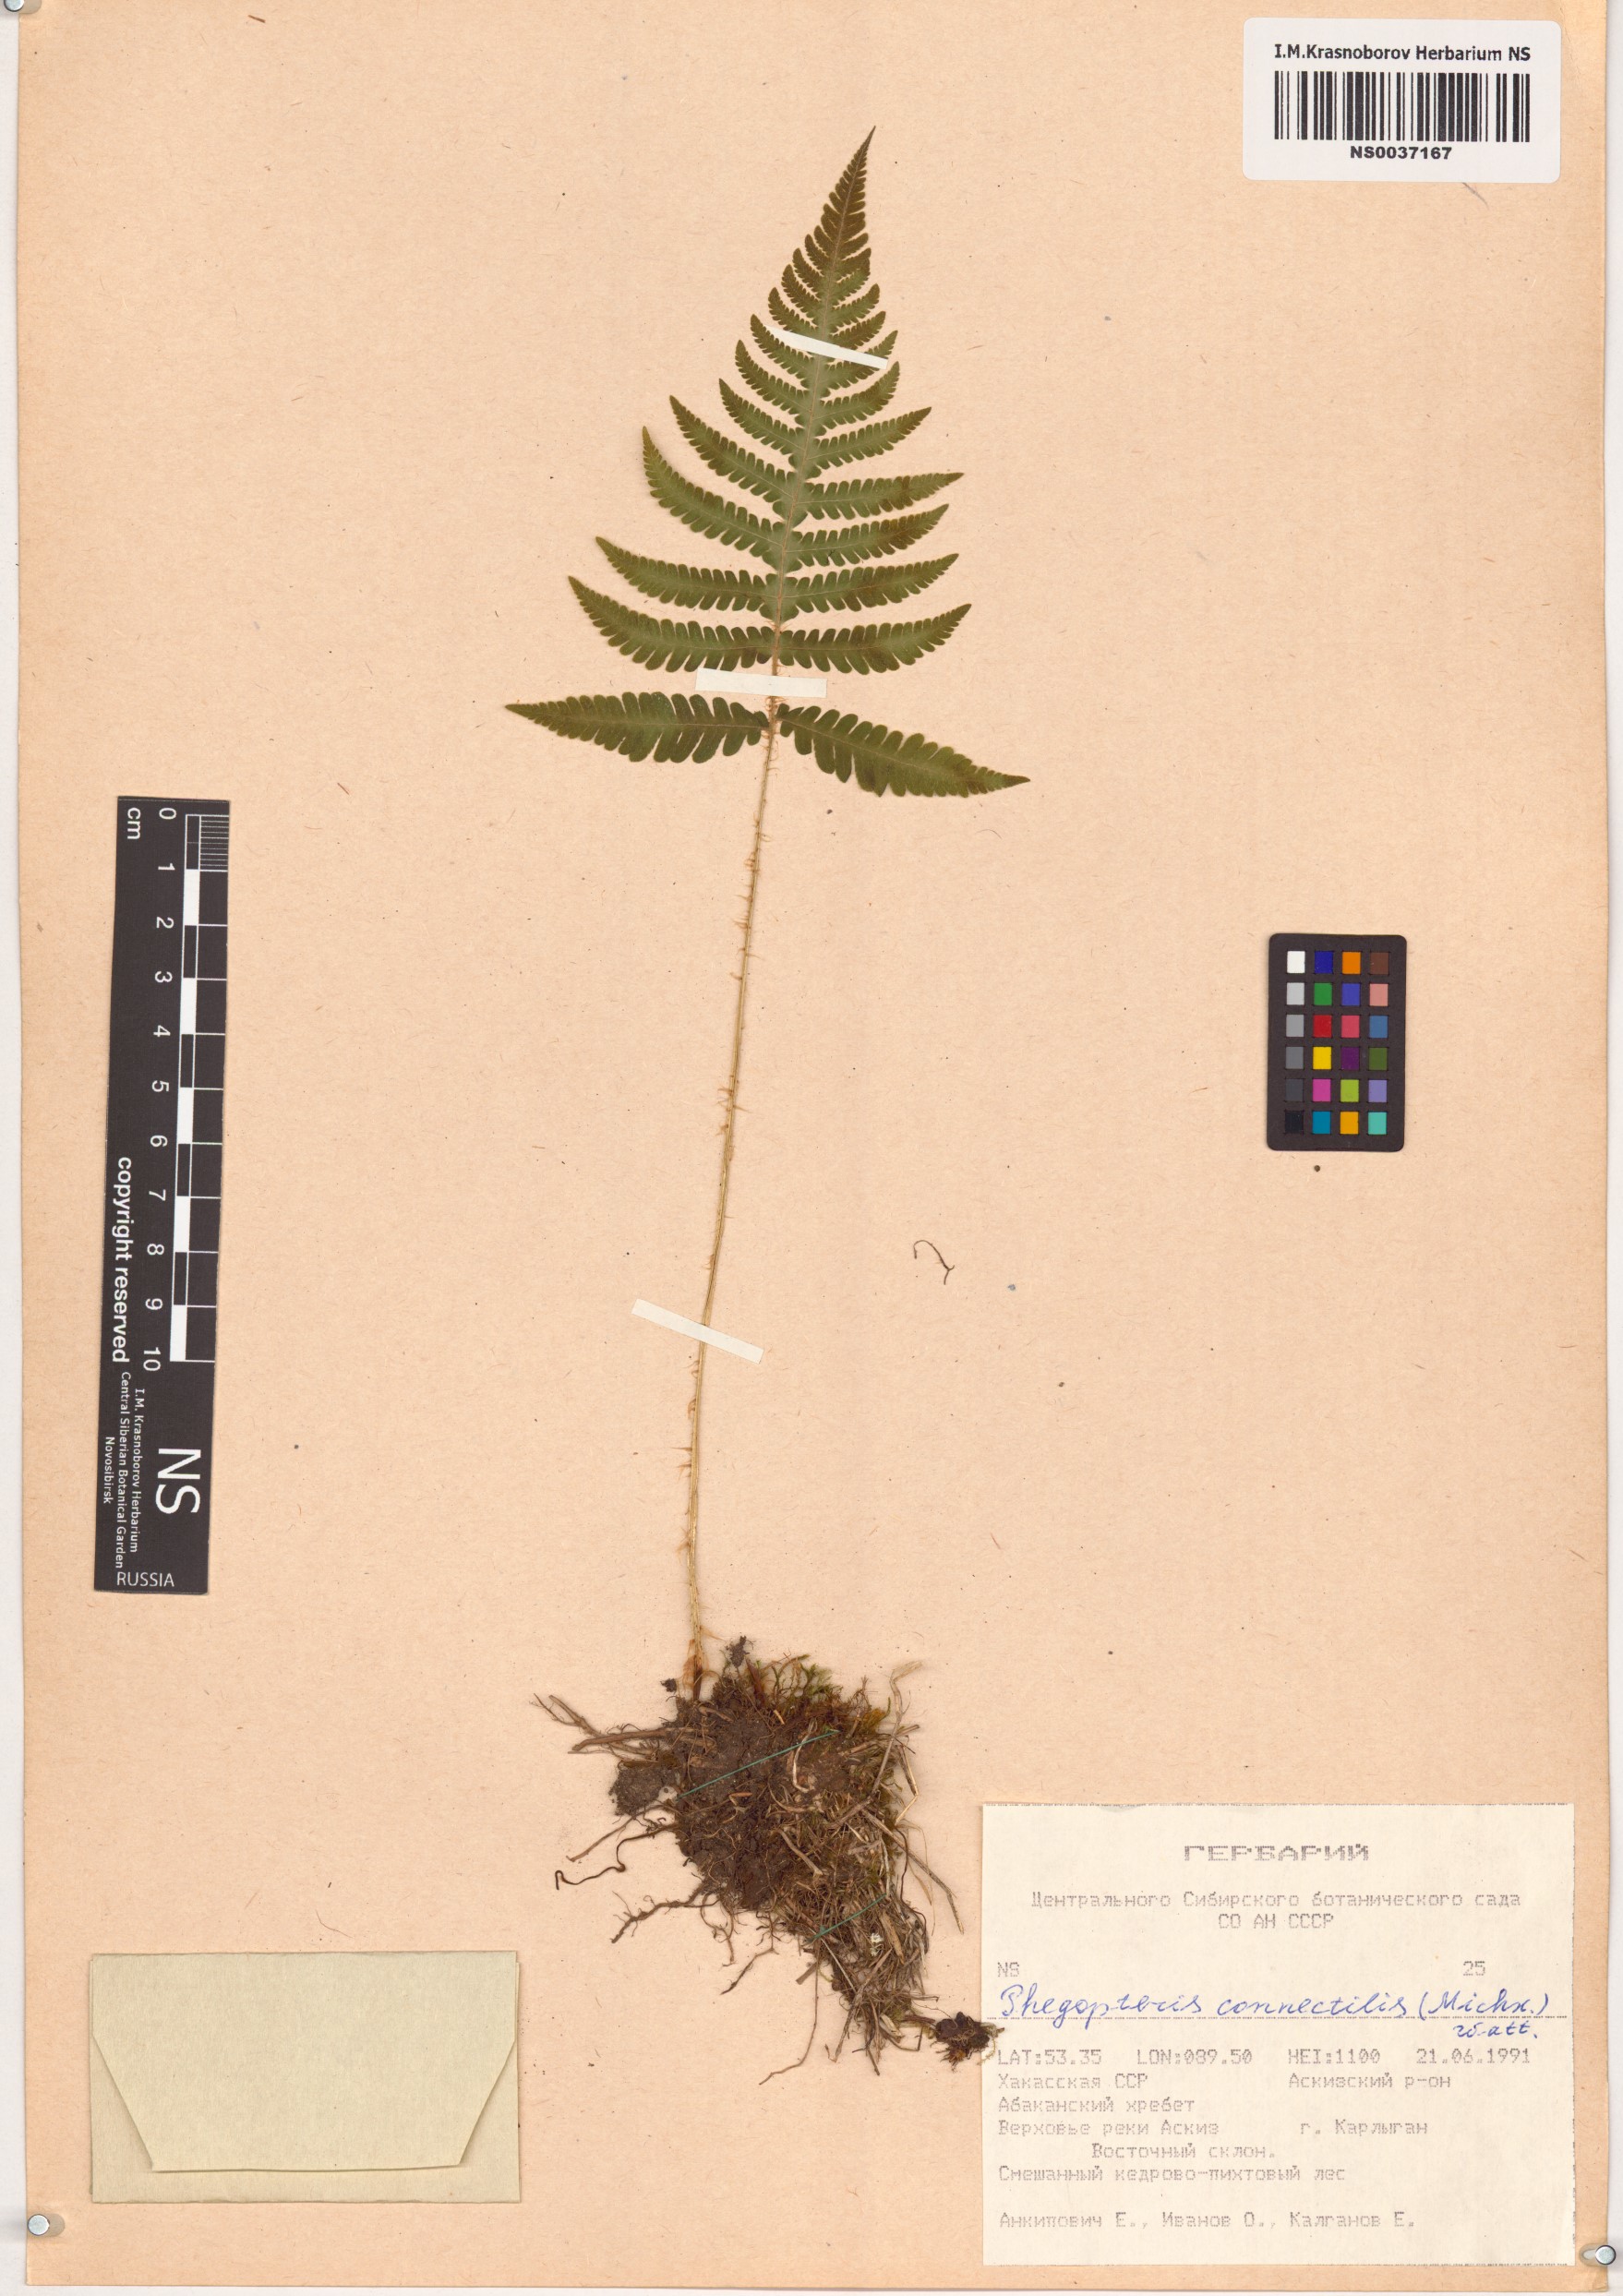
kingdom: Plantae
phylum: Tracheophyta
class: Polypodiopsida
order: Polypodiales
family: Thelypteridaceae
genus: Phegopteris
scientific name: Phegopteris connectilis
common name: Beech fern
